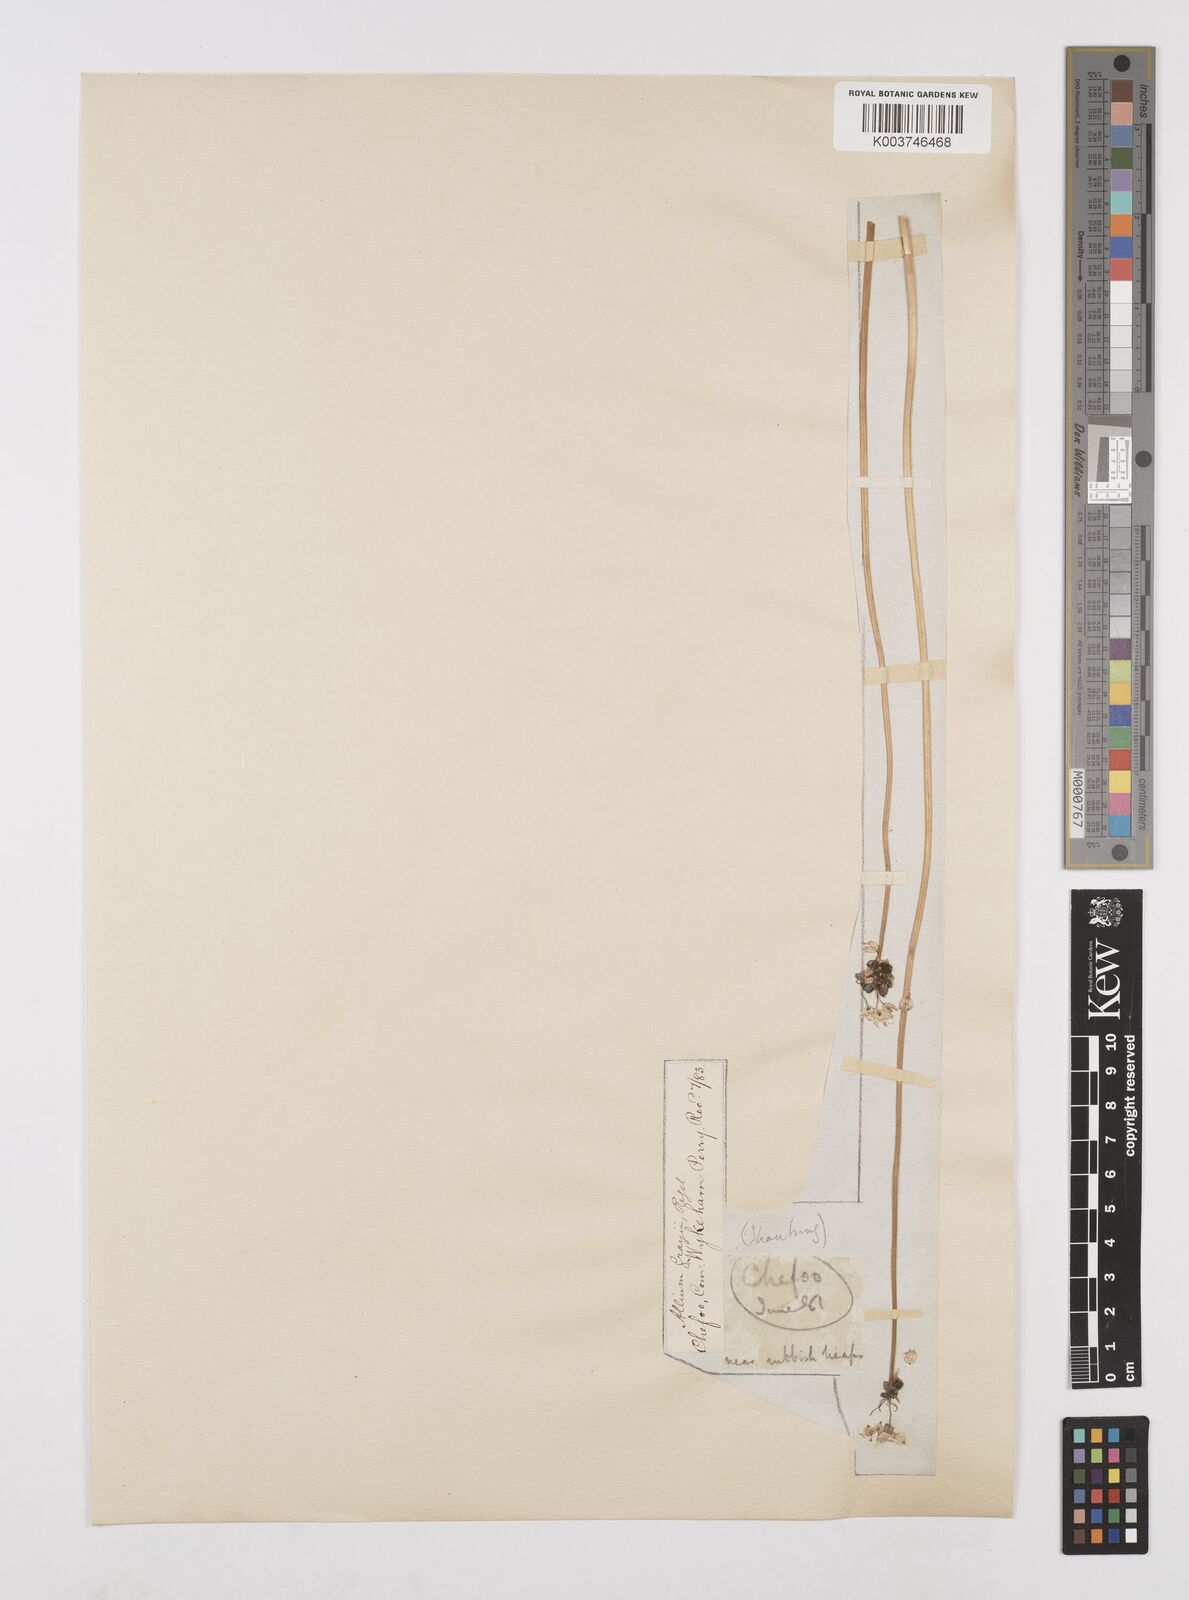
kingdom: Plantae
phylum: Tracheophyta
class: Liliopsida
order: Asparagales
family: Amaryllidaceae
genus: Allium
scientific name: Allium macrostemon
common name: Chinese garlic
